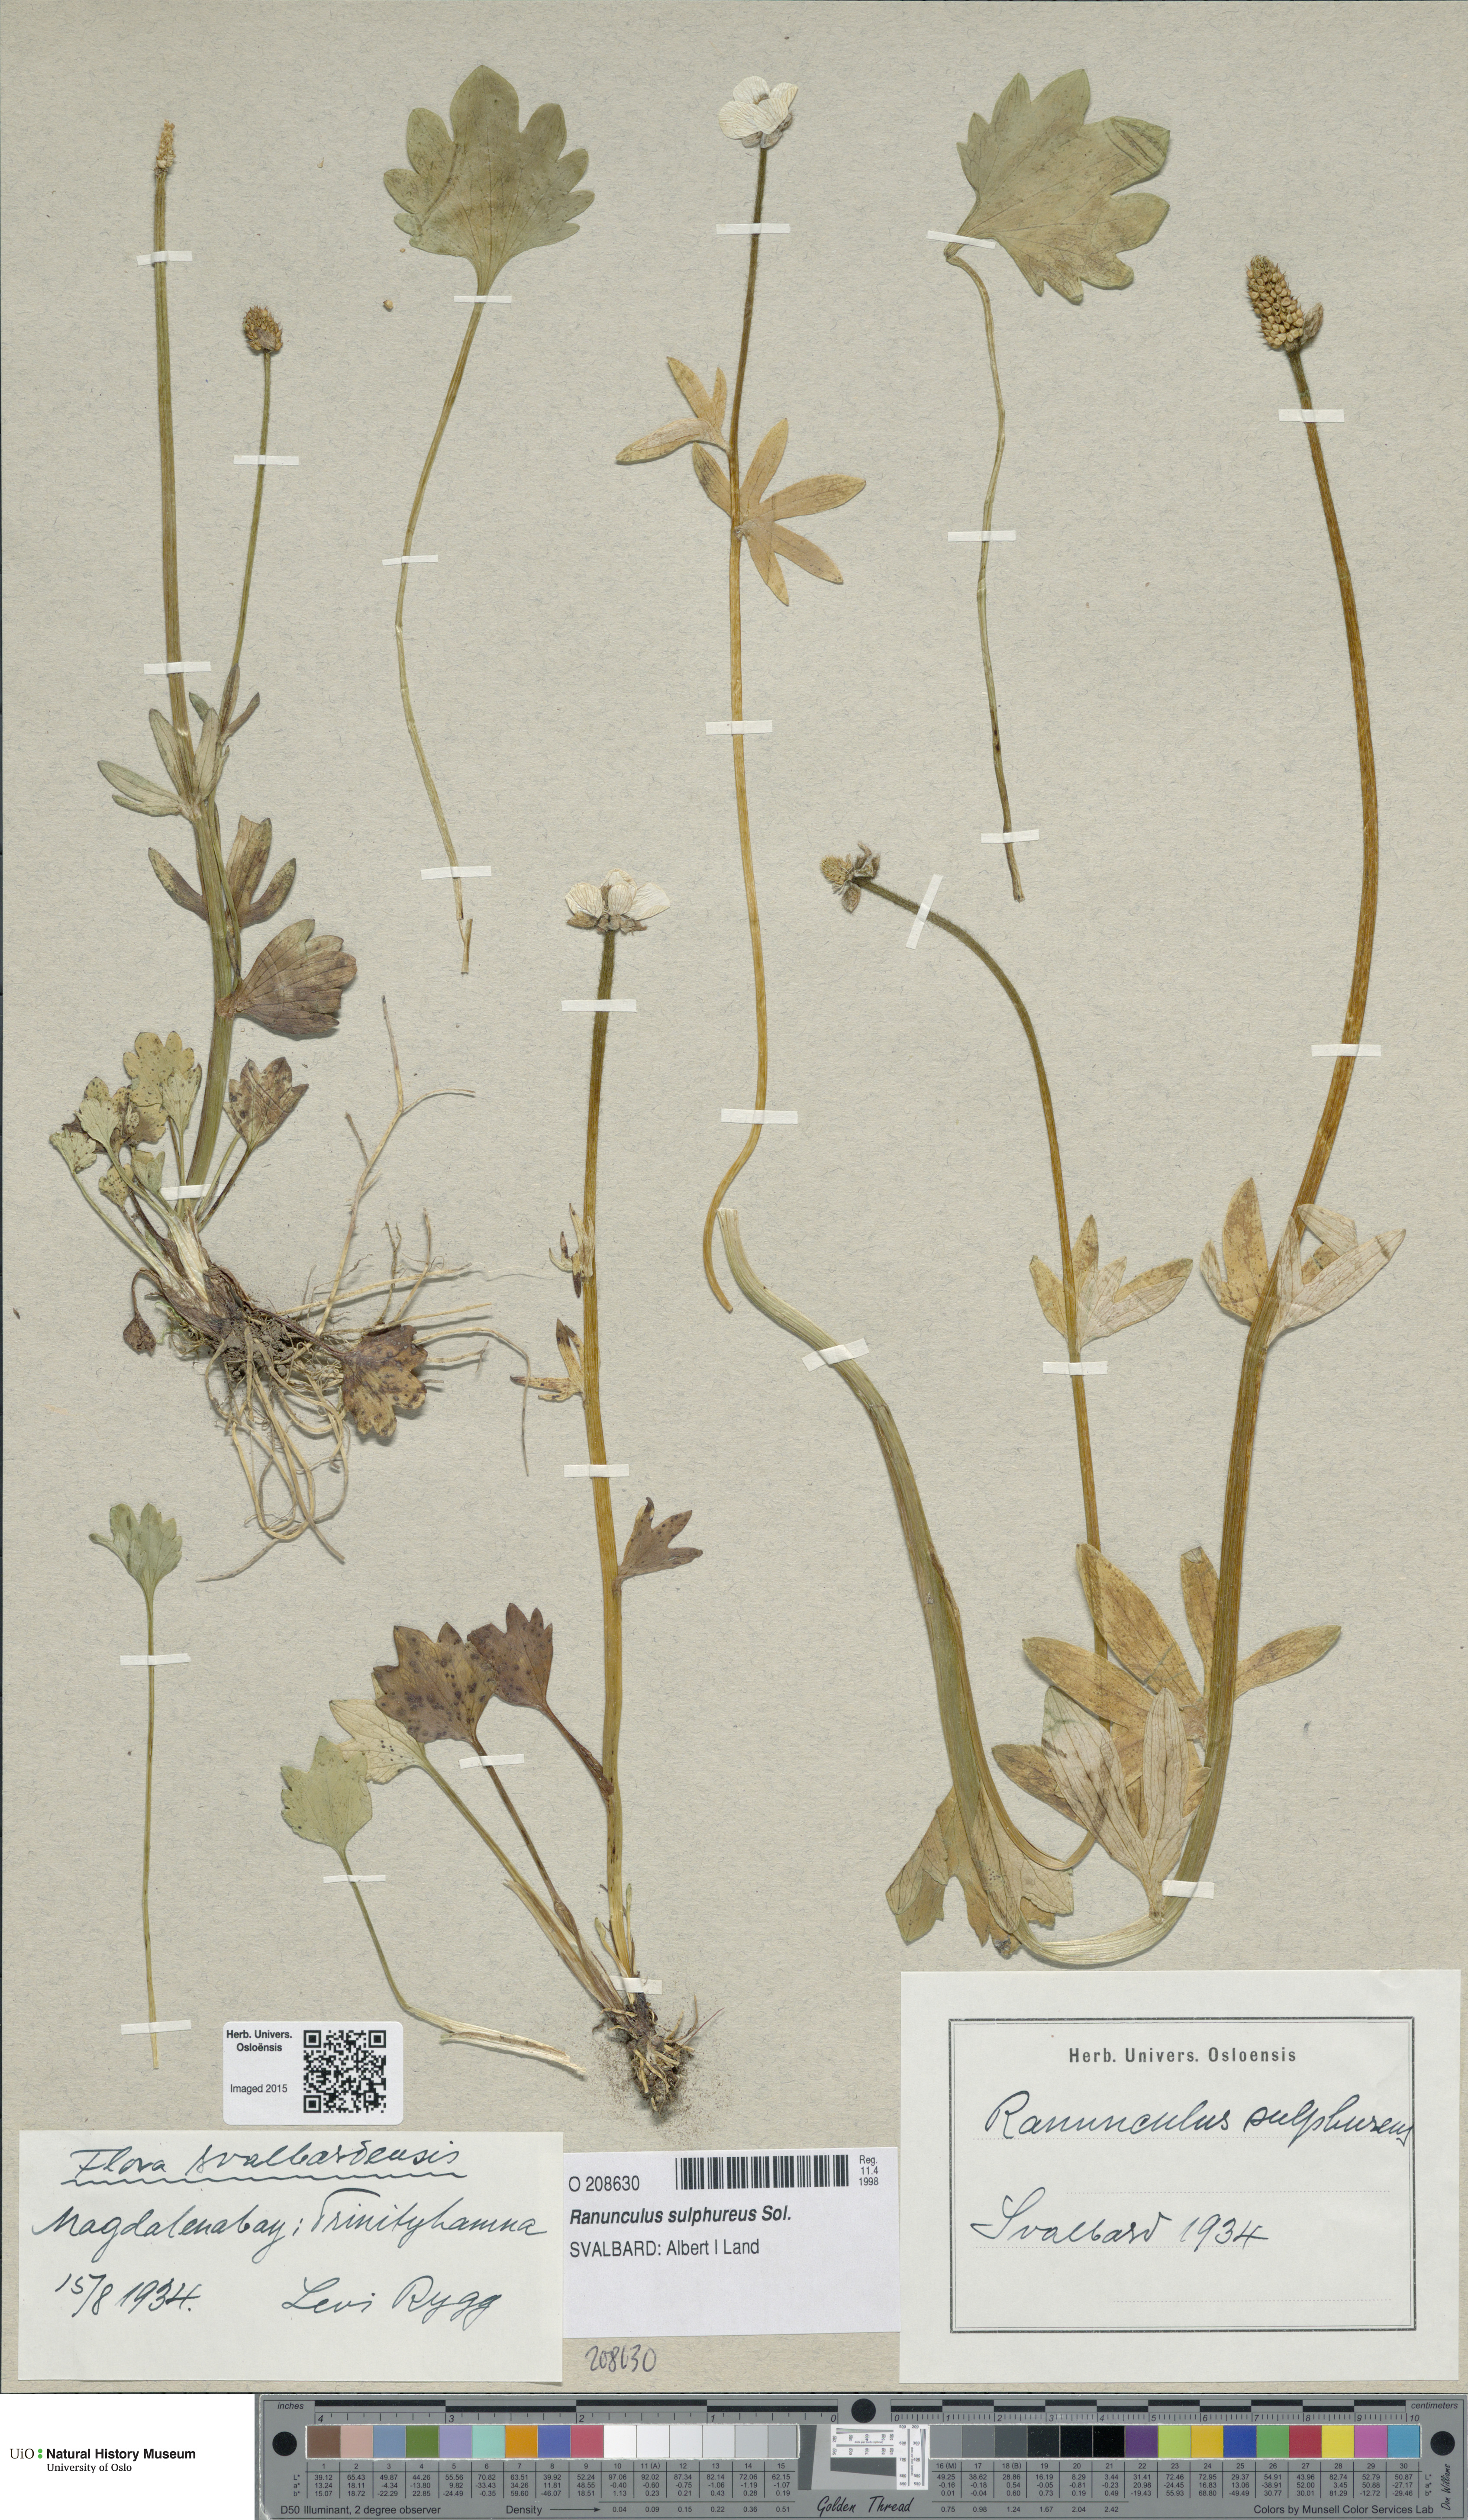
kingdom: Plantae
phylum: Tracheophyta
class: Magnoliopsida
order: Ranunculales
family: Ranunculaceae
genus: Ranunculus
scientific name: Ranunculus sulphureus
